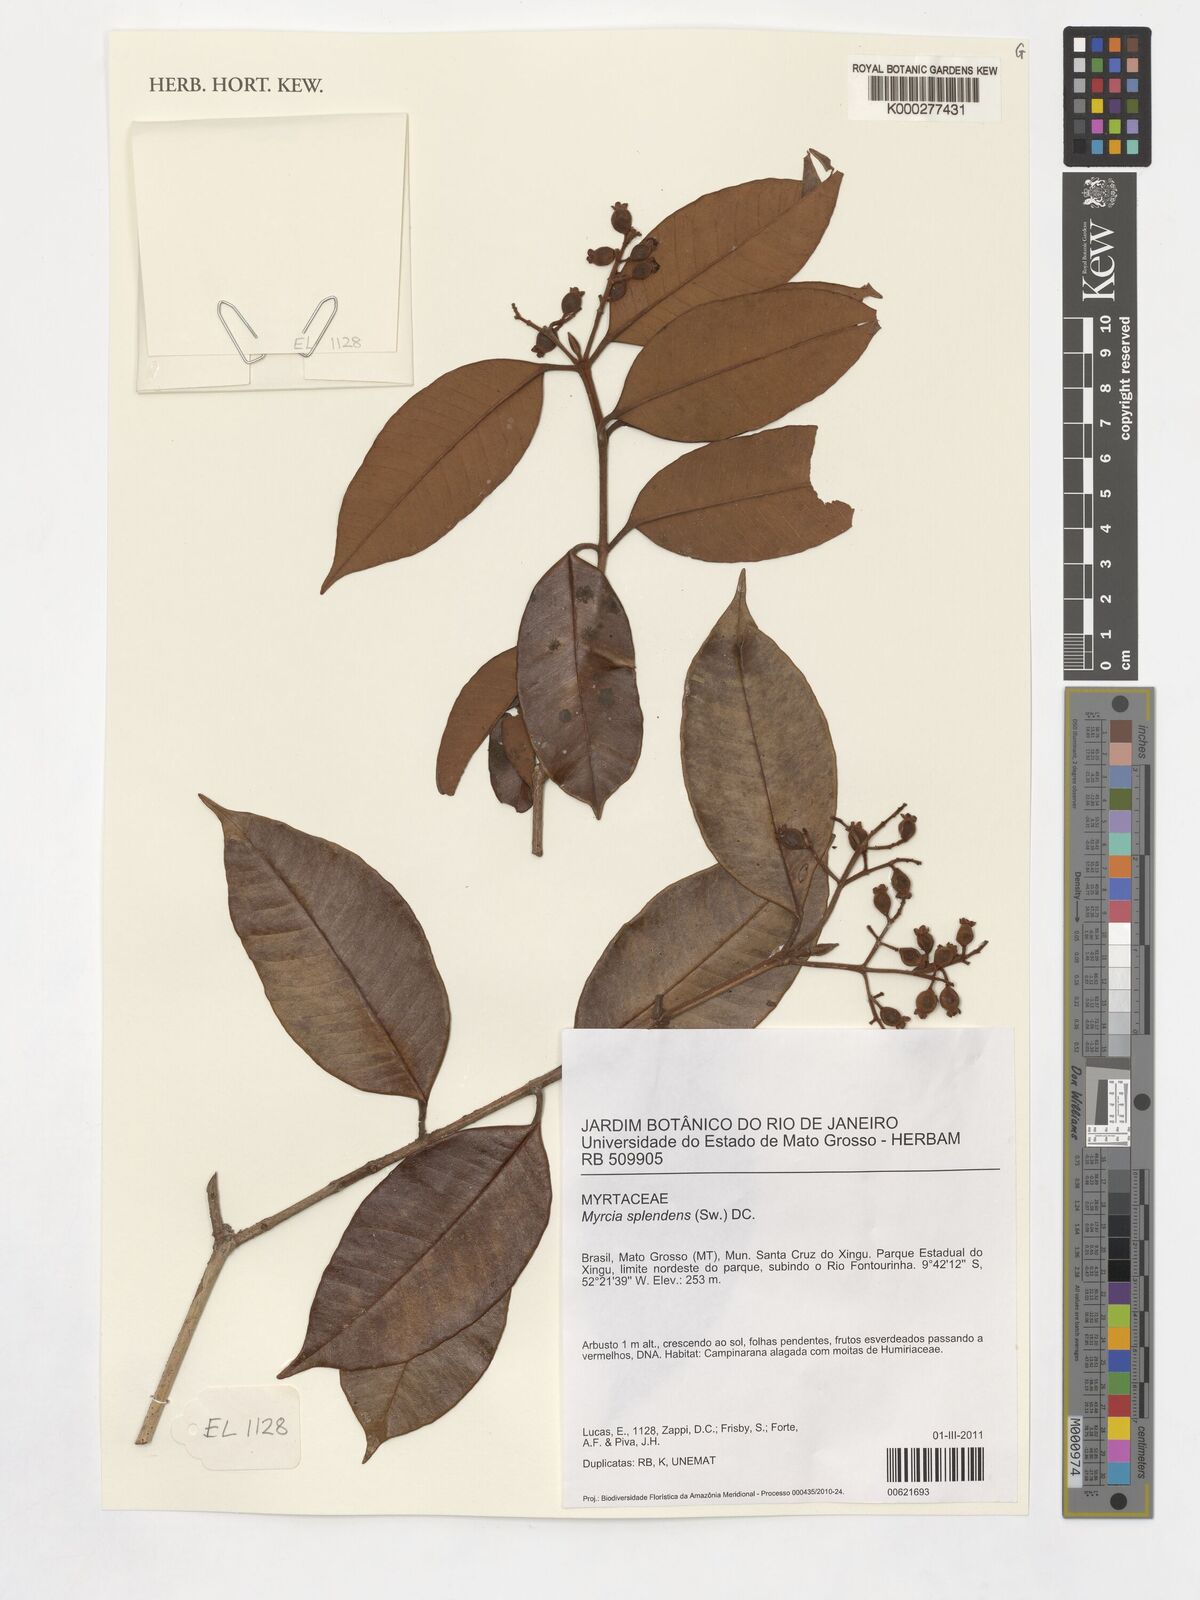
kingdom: Plantae
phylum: Tracheophyta
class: Magnoliopsida
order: Myrtales
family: Myrtaceae
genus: Myrcia
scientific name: Myrcia splendens
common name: Surinam cherry
